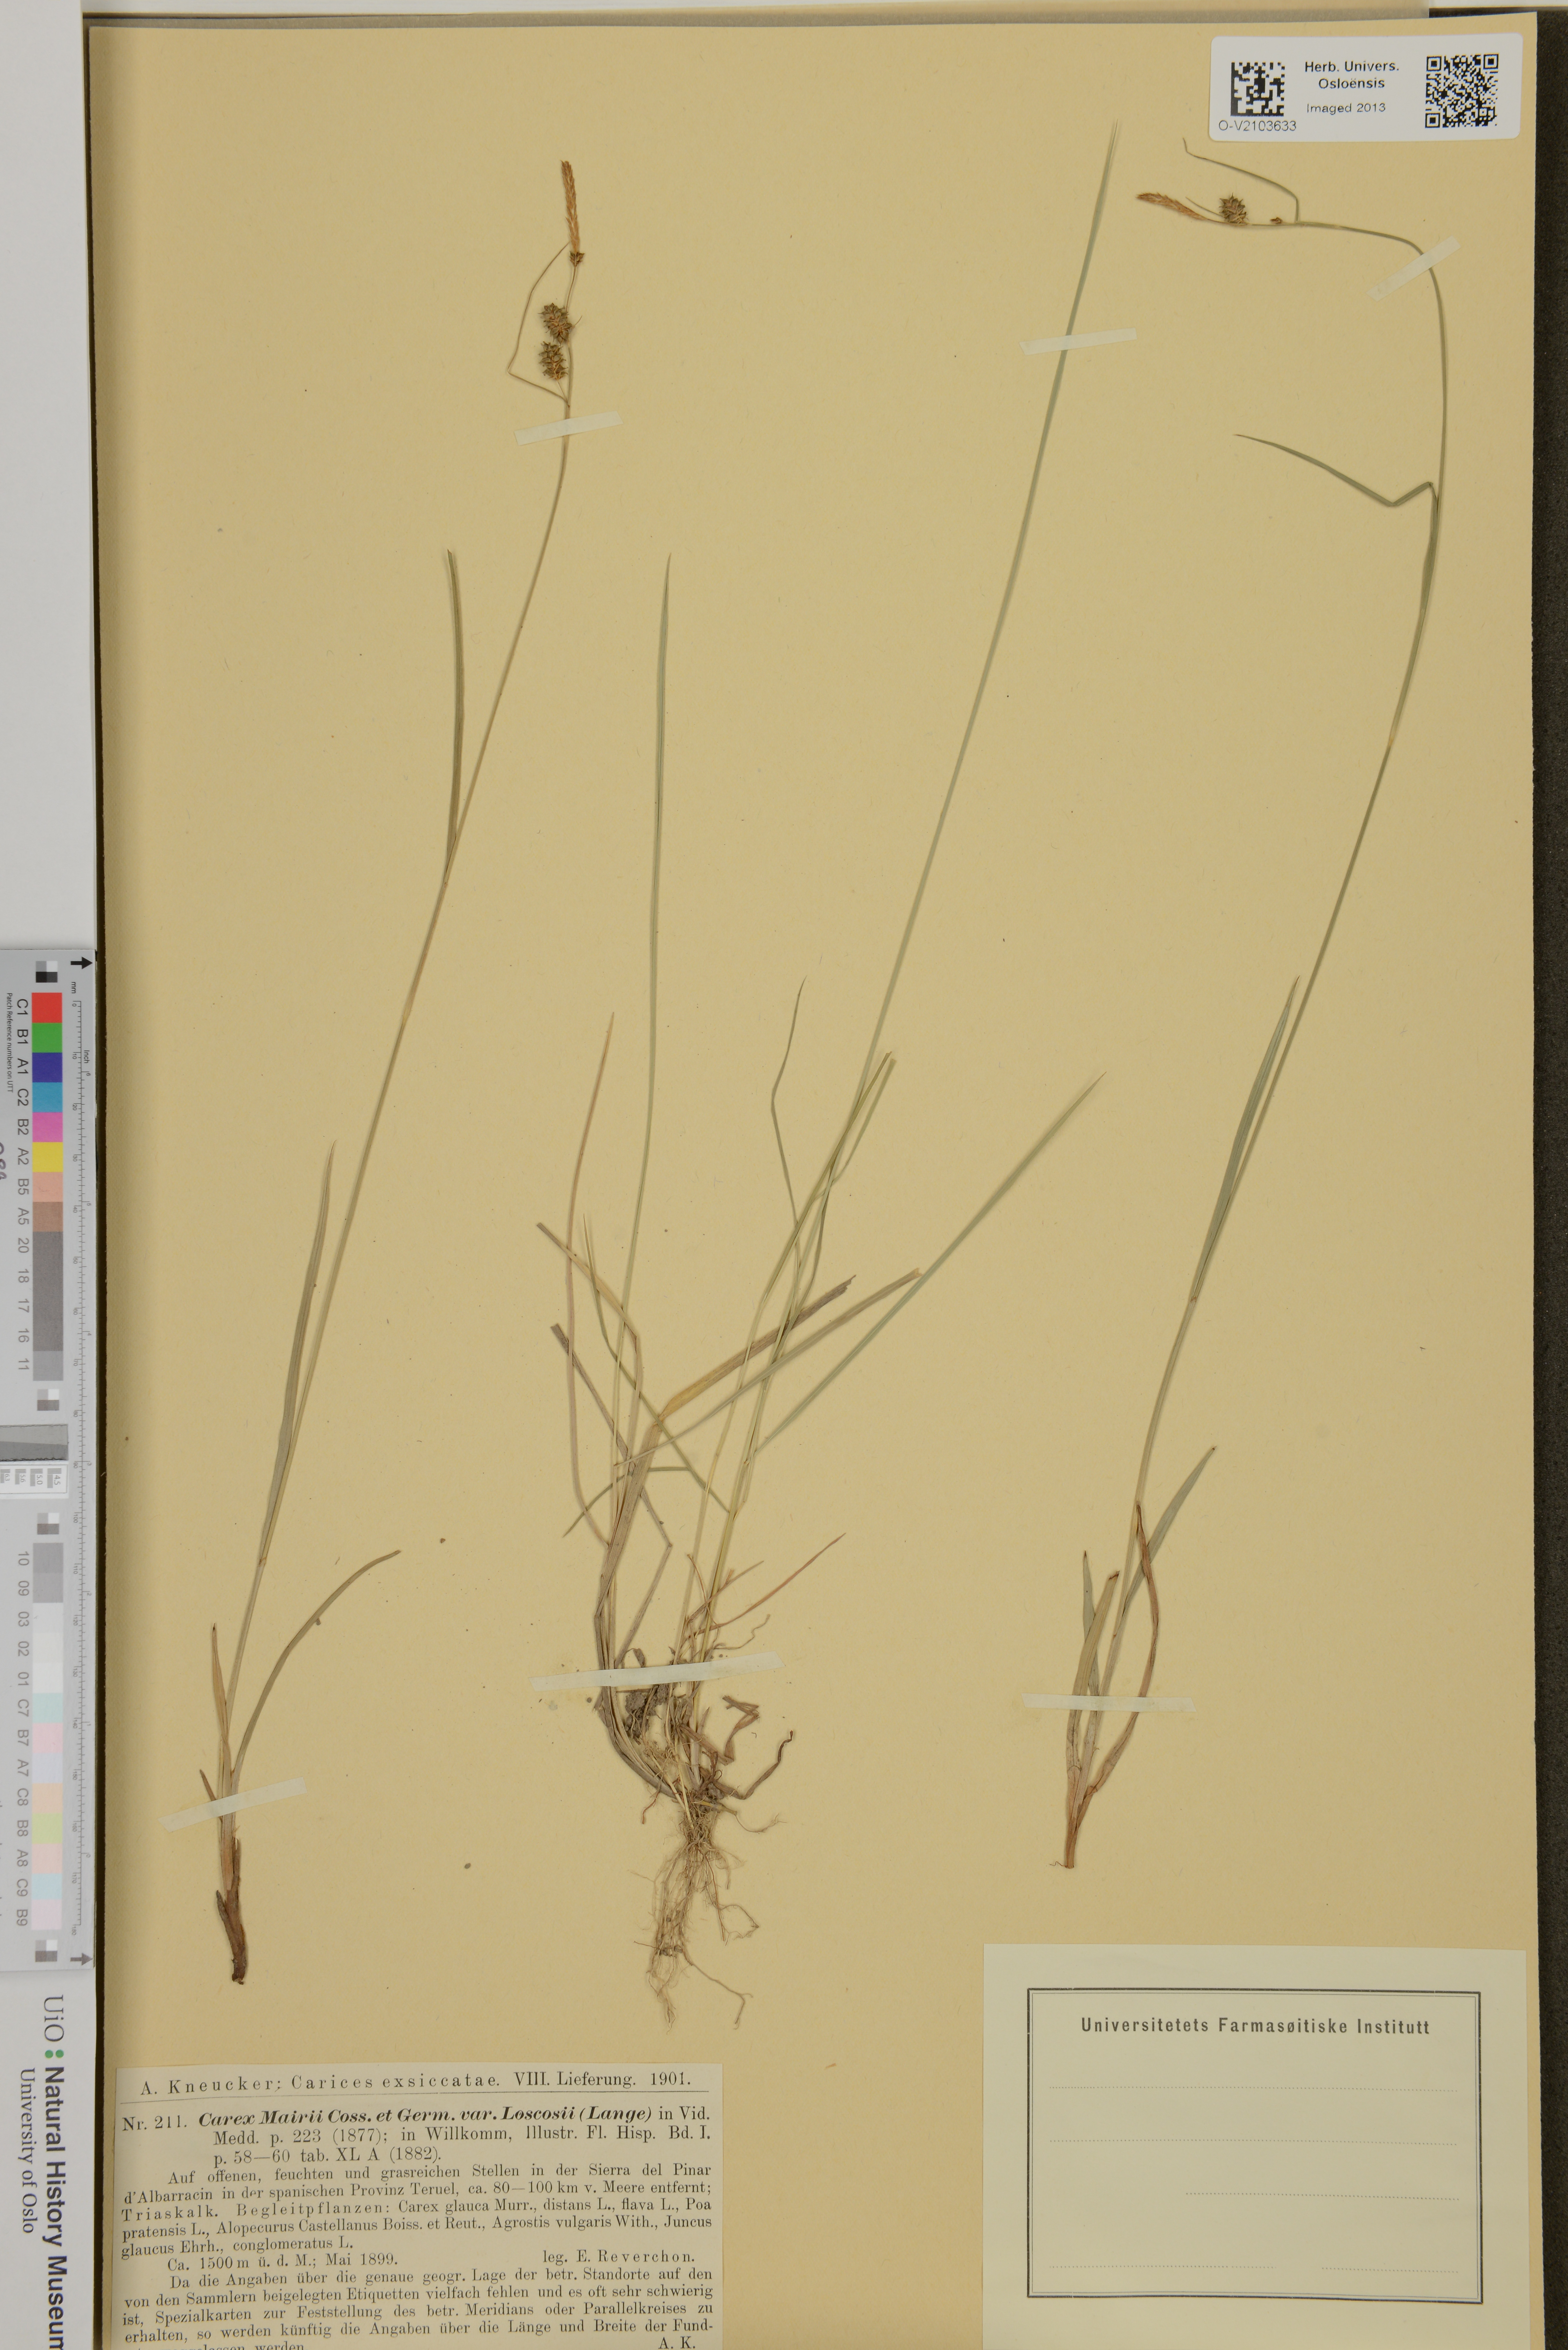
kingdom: Plantae
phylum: Tracheophyta
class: Liliopsida
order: Poales
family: Cyperaceae
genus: Carex
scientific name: Carex mairei
